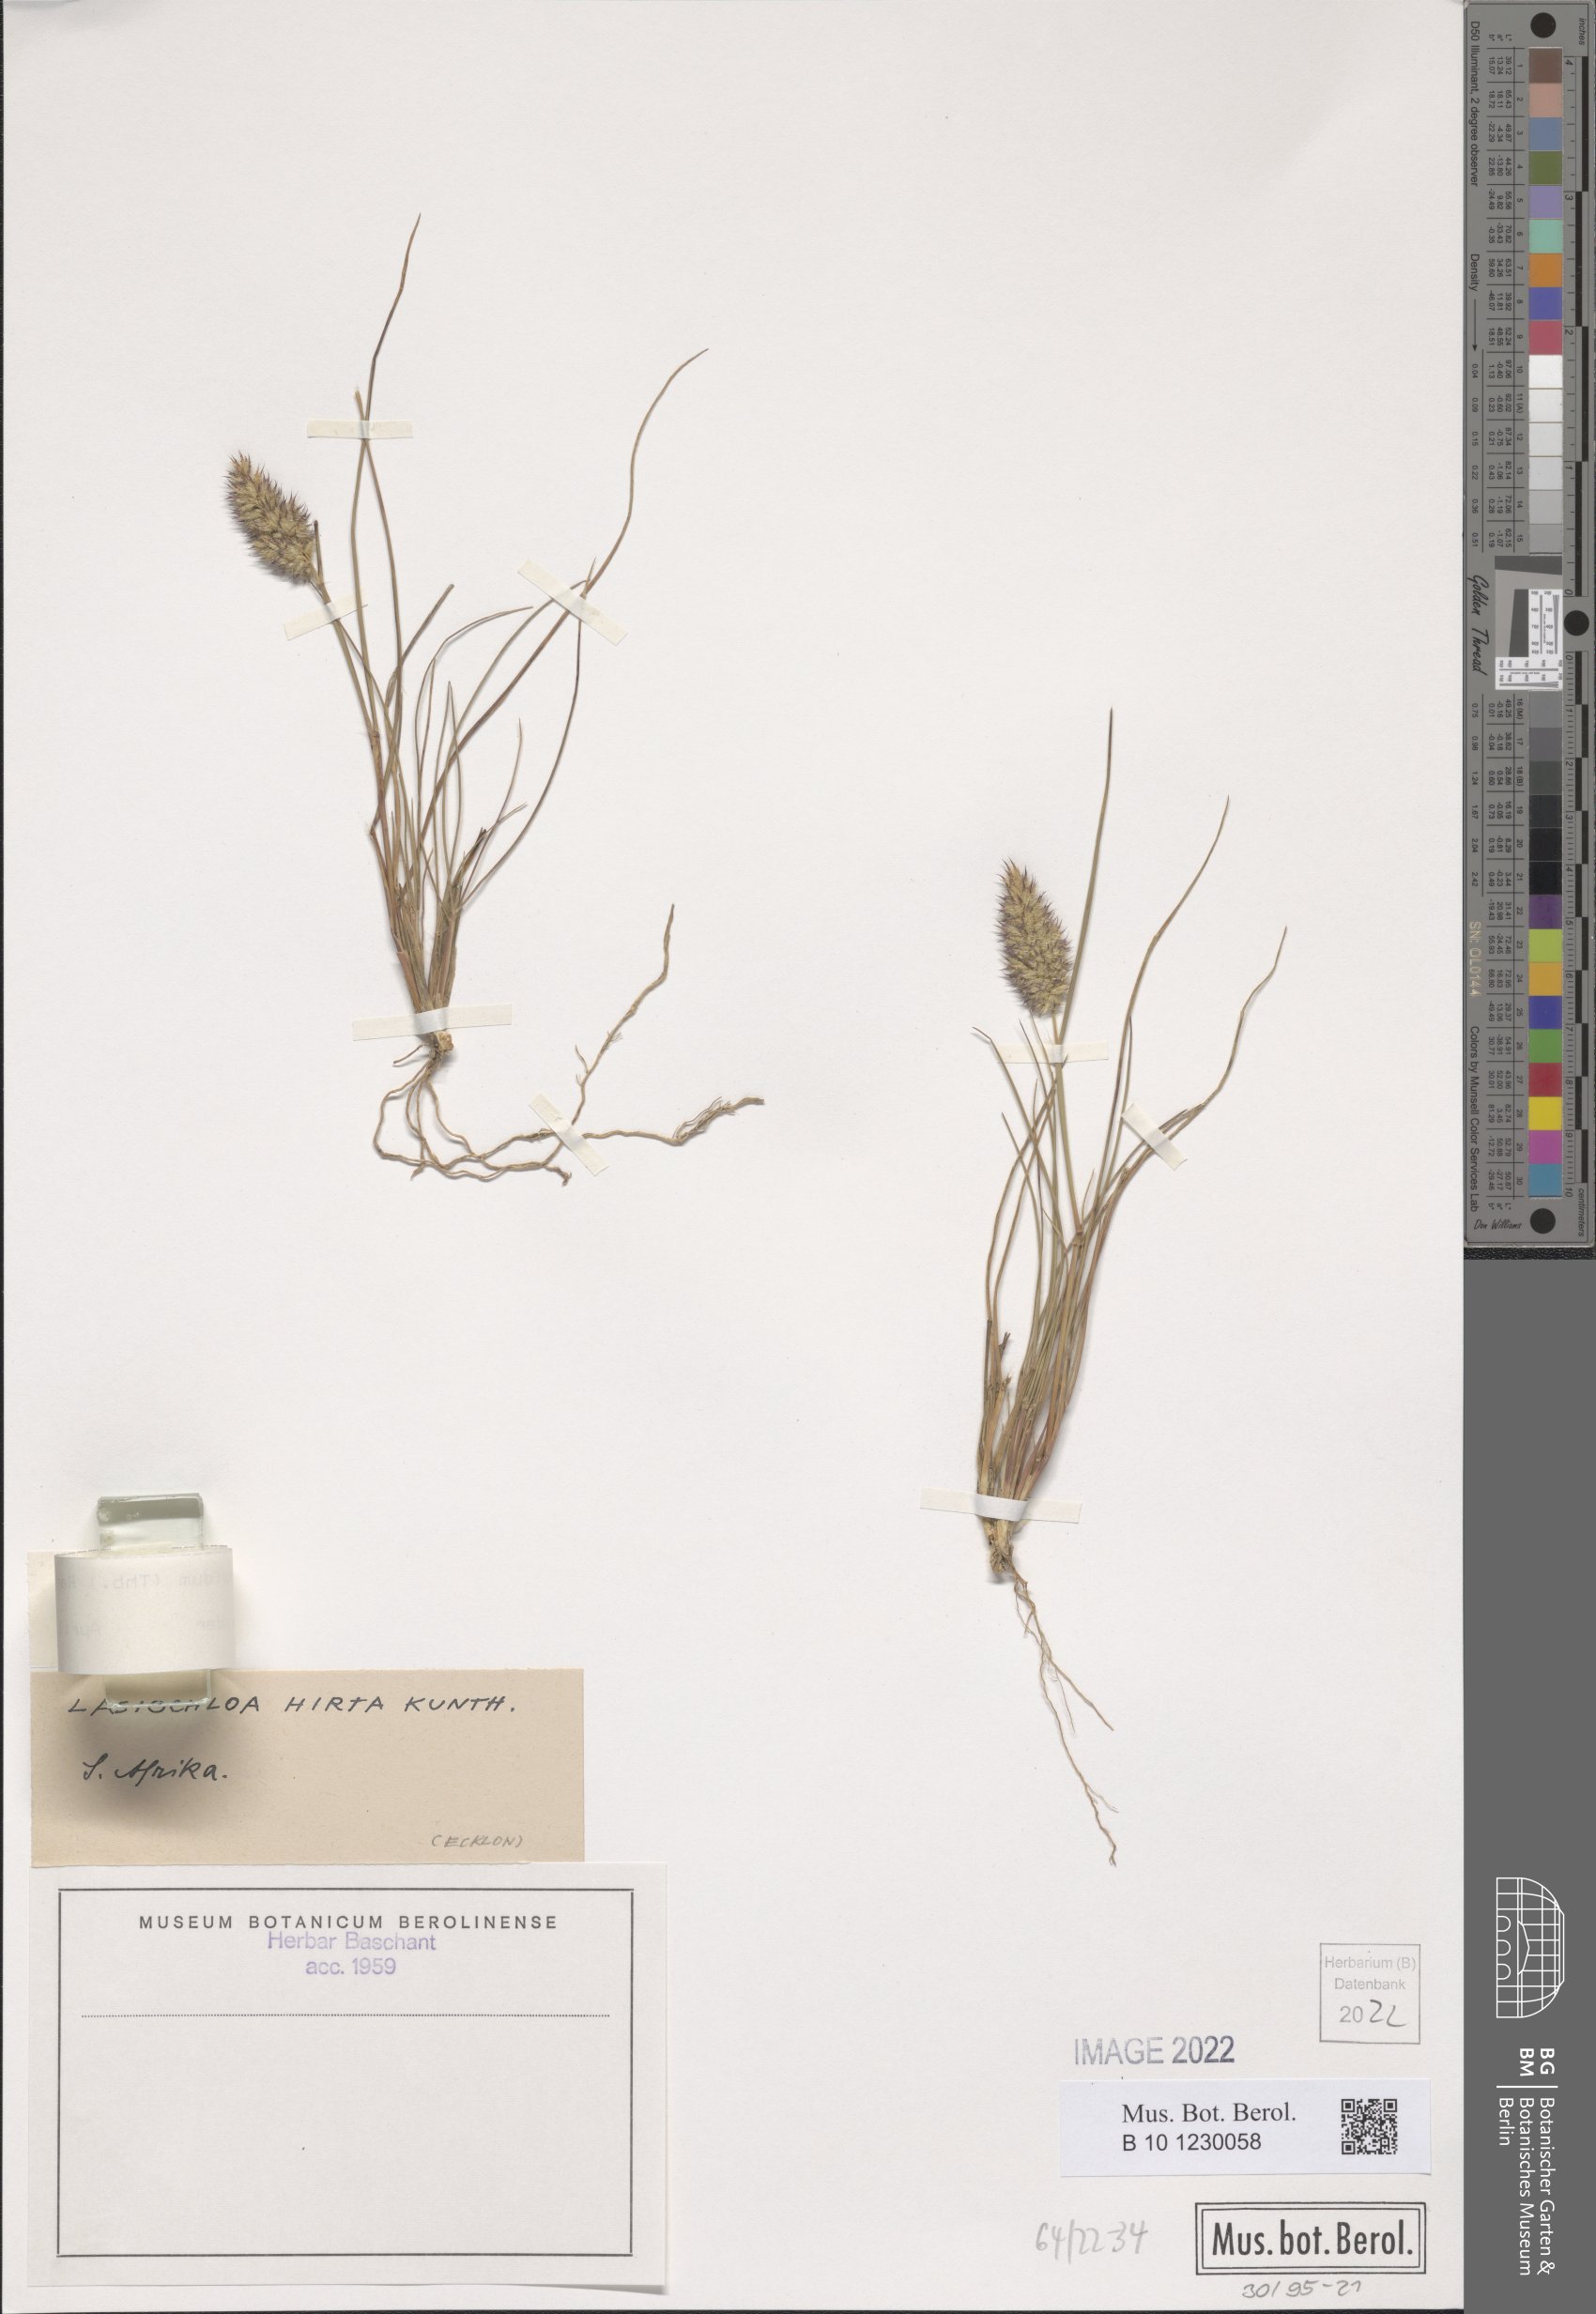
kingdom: Plantae
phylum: Tracheophyta
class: Liliopsida
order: Poales
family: Poaceae
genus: Tribolium
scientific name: Tribolium hispidum
